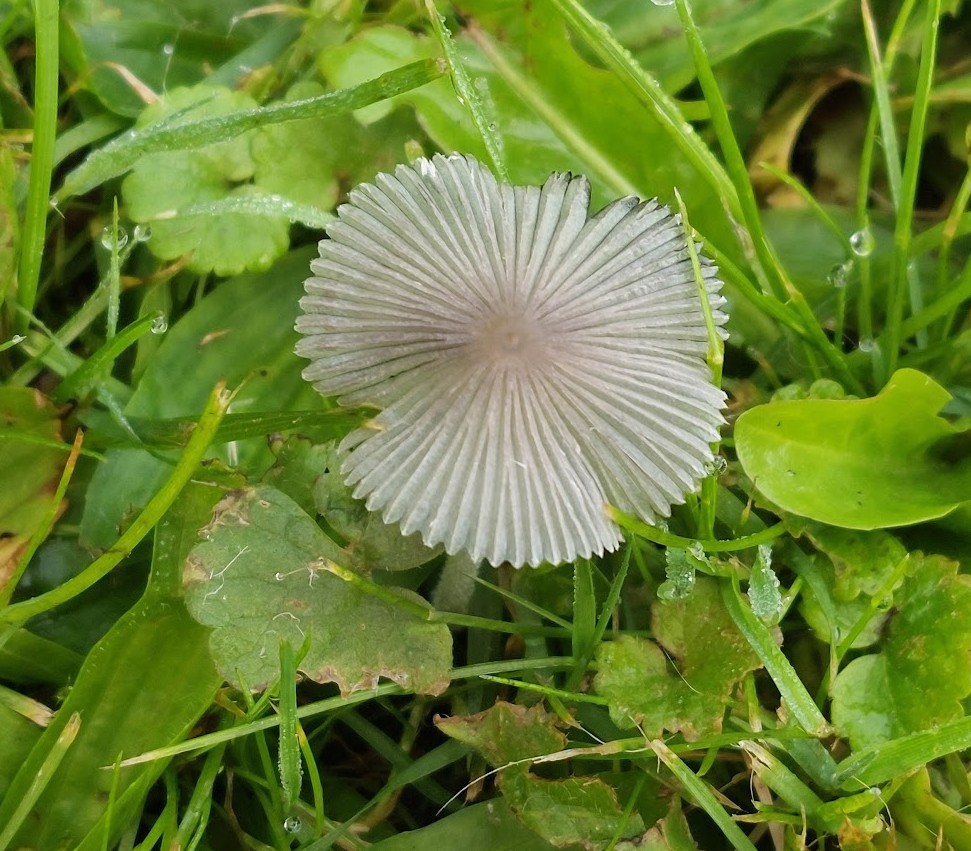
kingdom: Fungi
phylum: Basidiomycota
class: Agaricomycetes
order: Agaricales
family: Psathyrellaceae
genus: Coprinopsis
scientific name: Coprinopsis lagopus
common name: dunstokket blækhat
